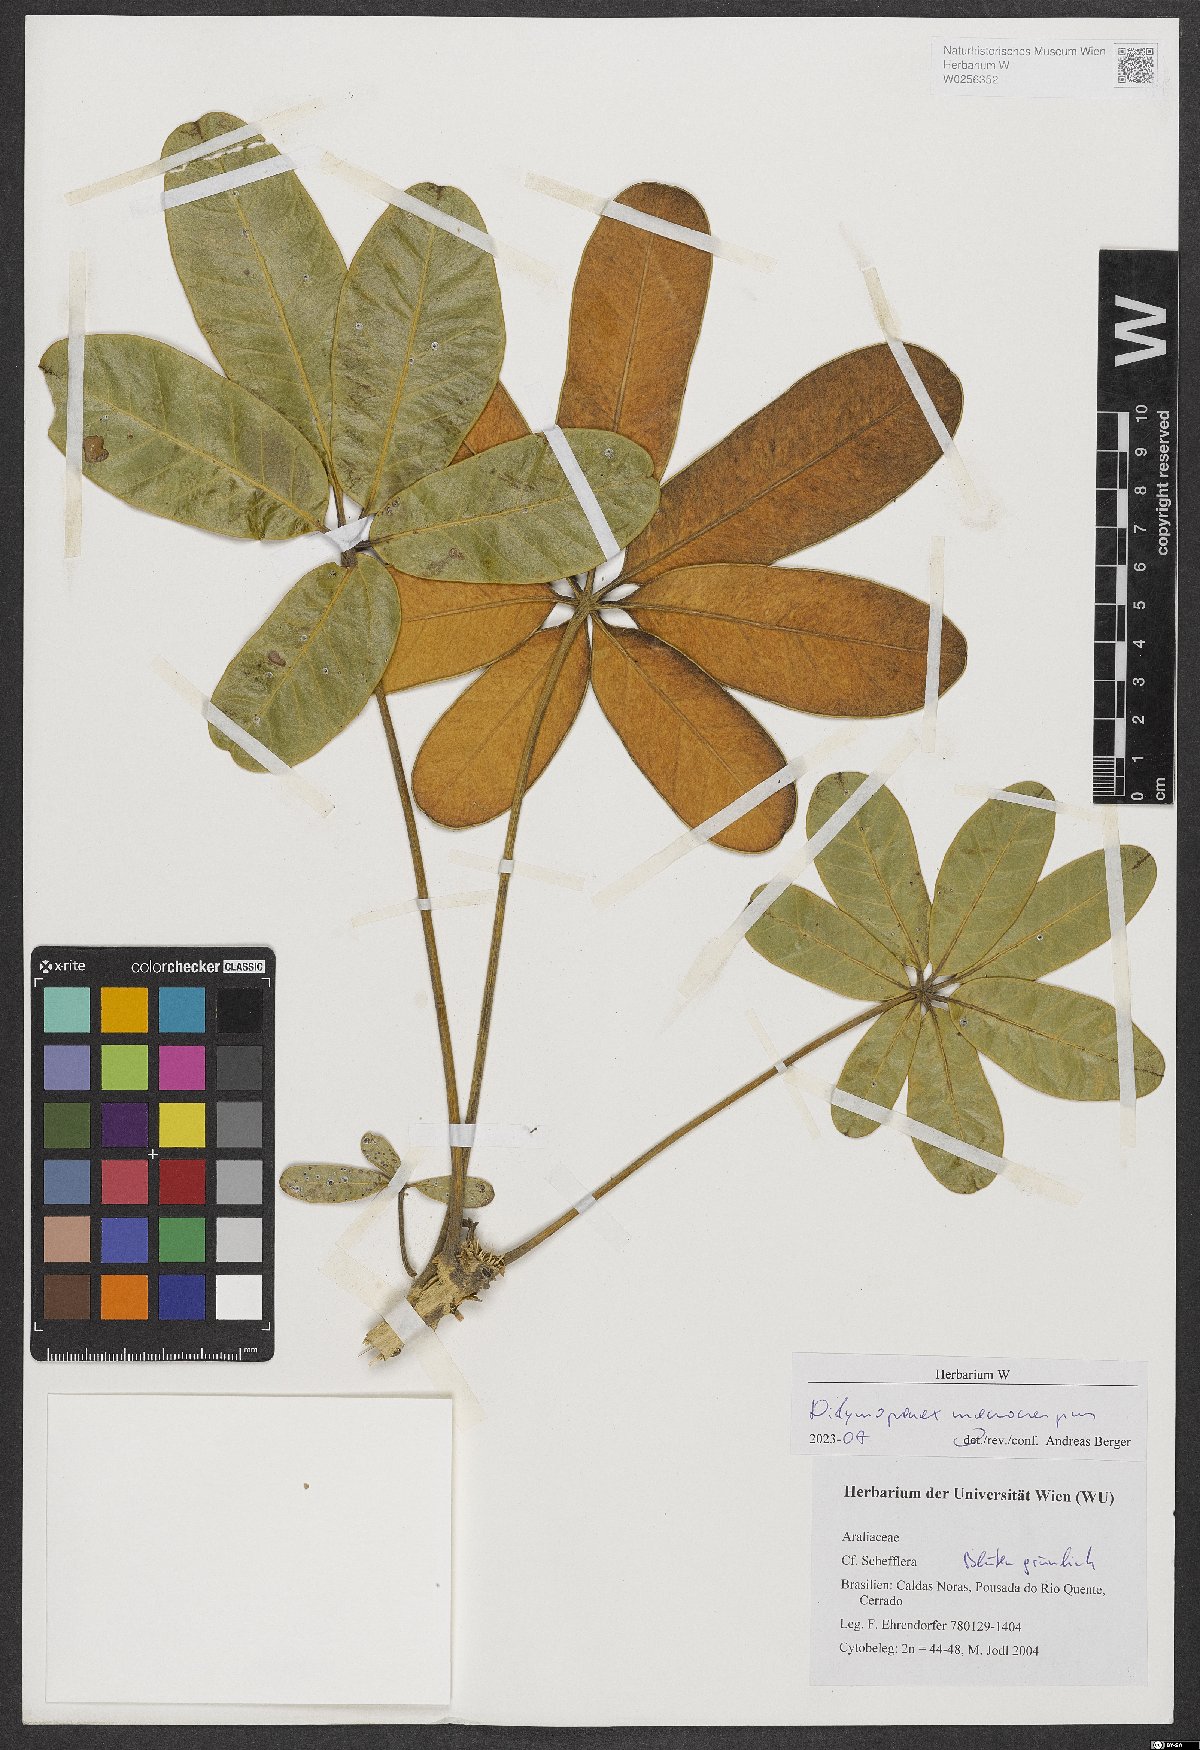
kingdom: Plantae
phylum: Tracheophyta
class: Magnoliopsida
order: Apiales
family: Araliaceae
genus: Didymopanax
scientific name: Didymopanax macrocarpus
